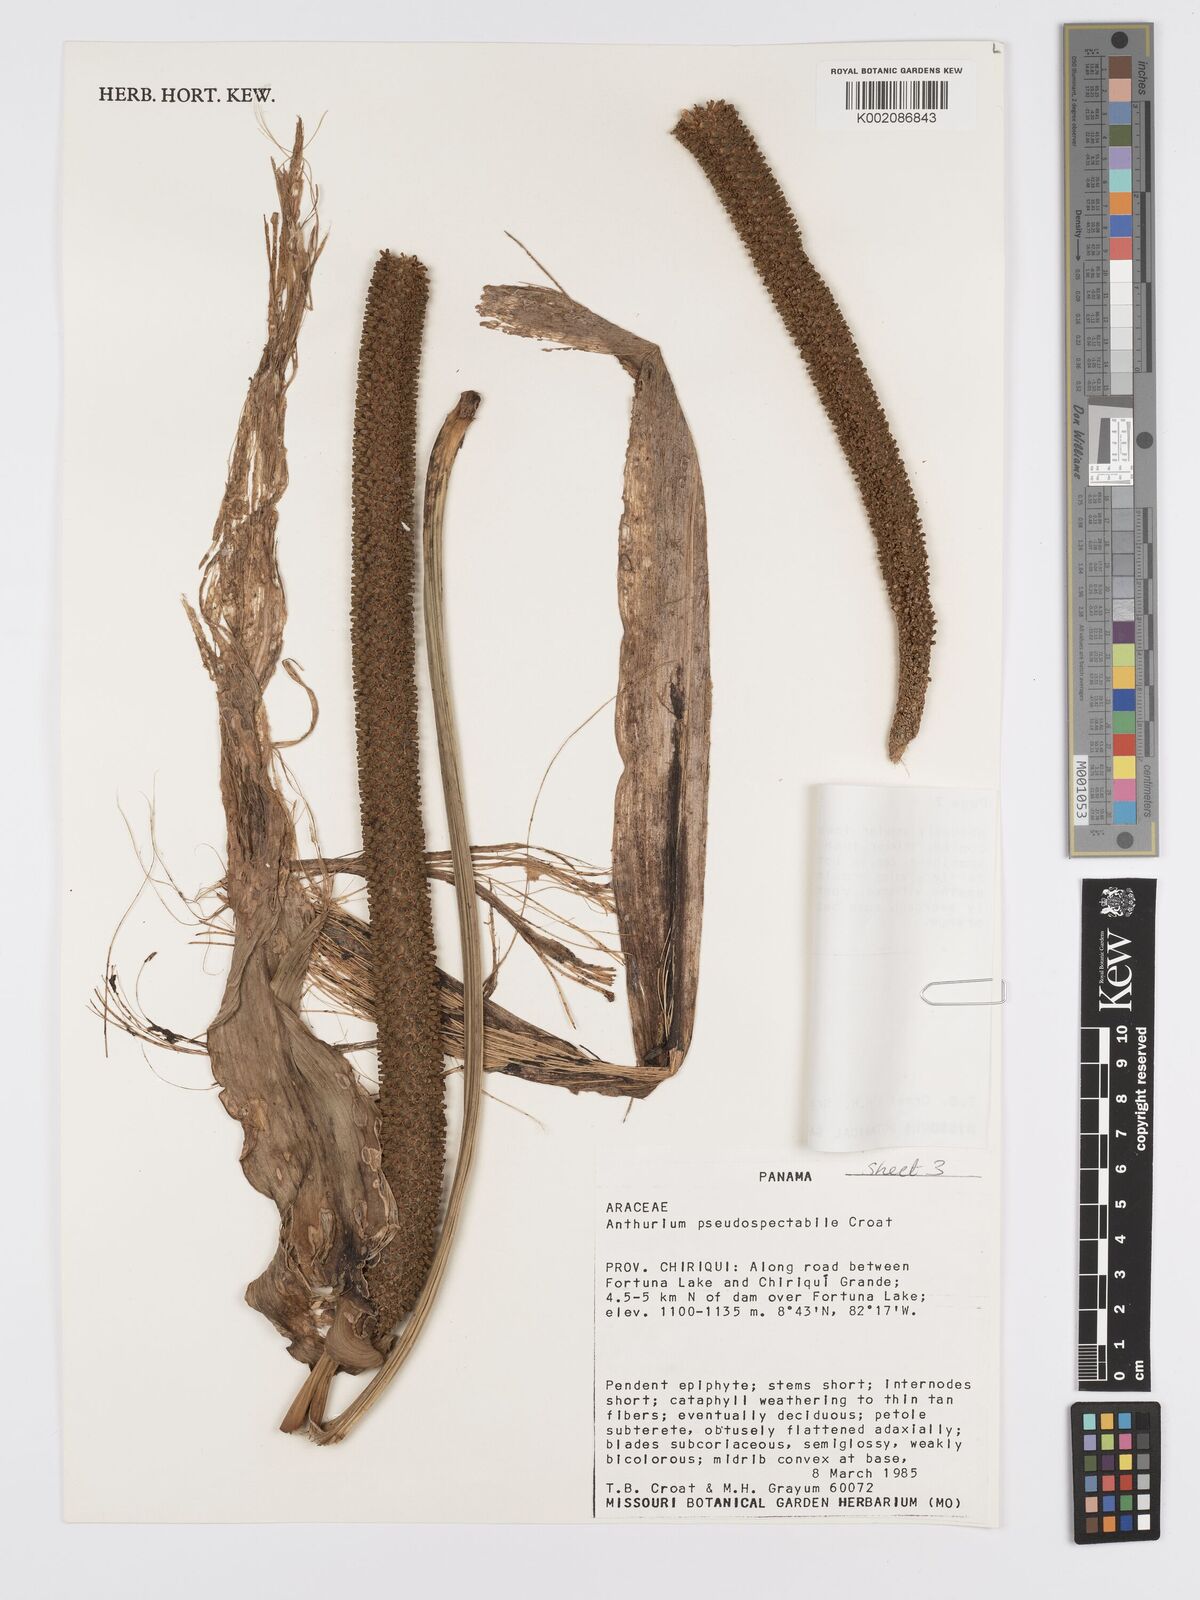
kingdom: Plantae
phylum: Tracheophyta
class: Liliopsida
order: Alismatales
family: Araceae
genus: Anthurium
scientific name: Anthurium pseudospectabile
